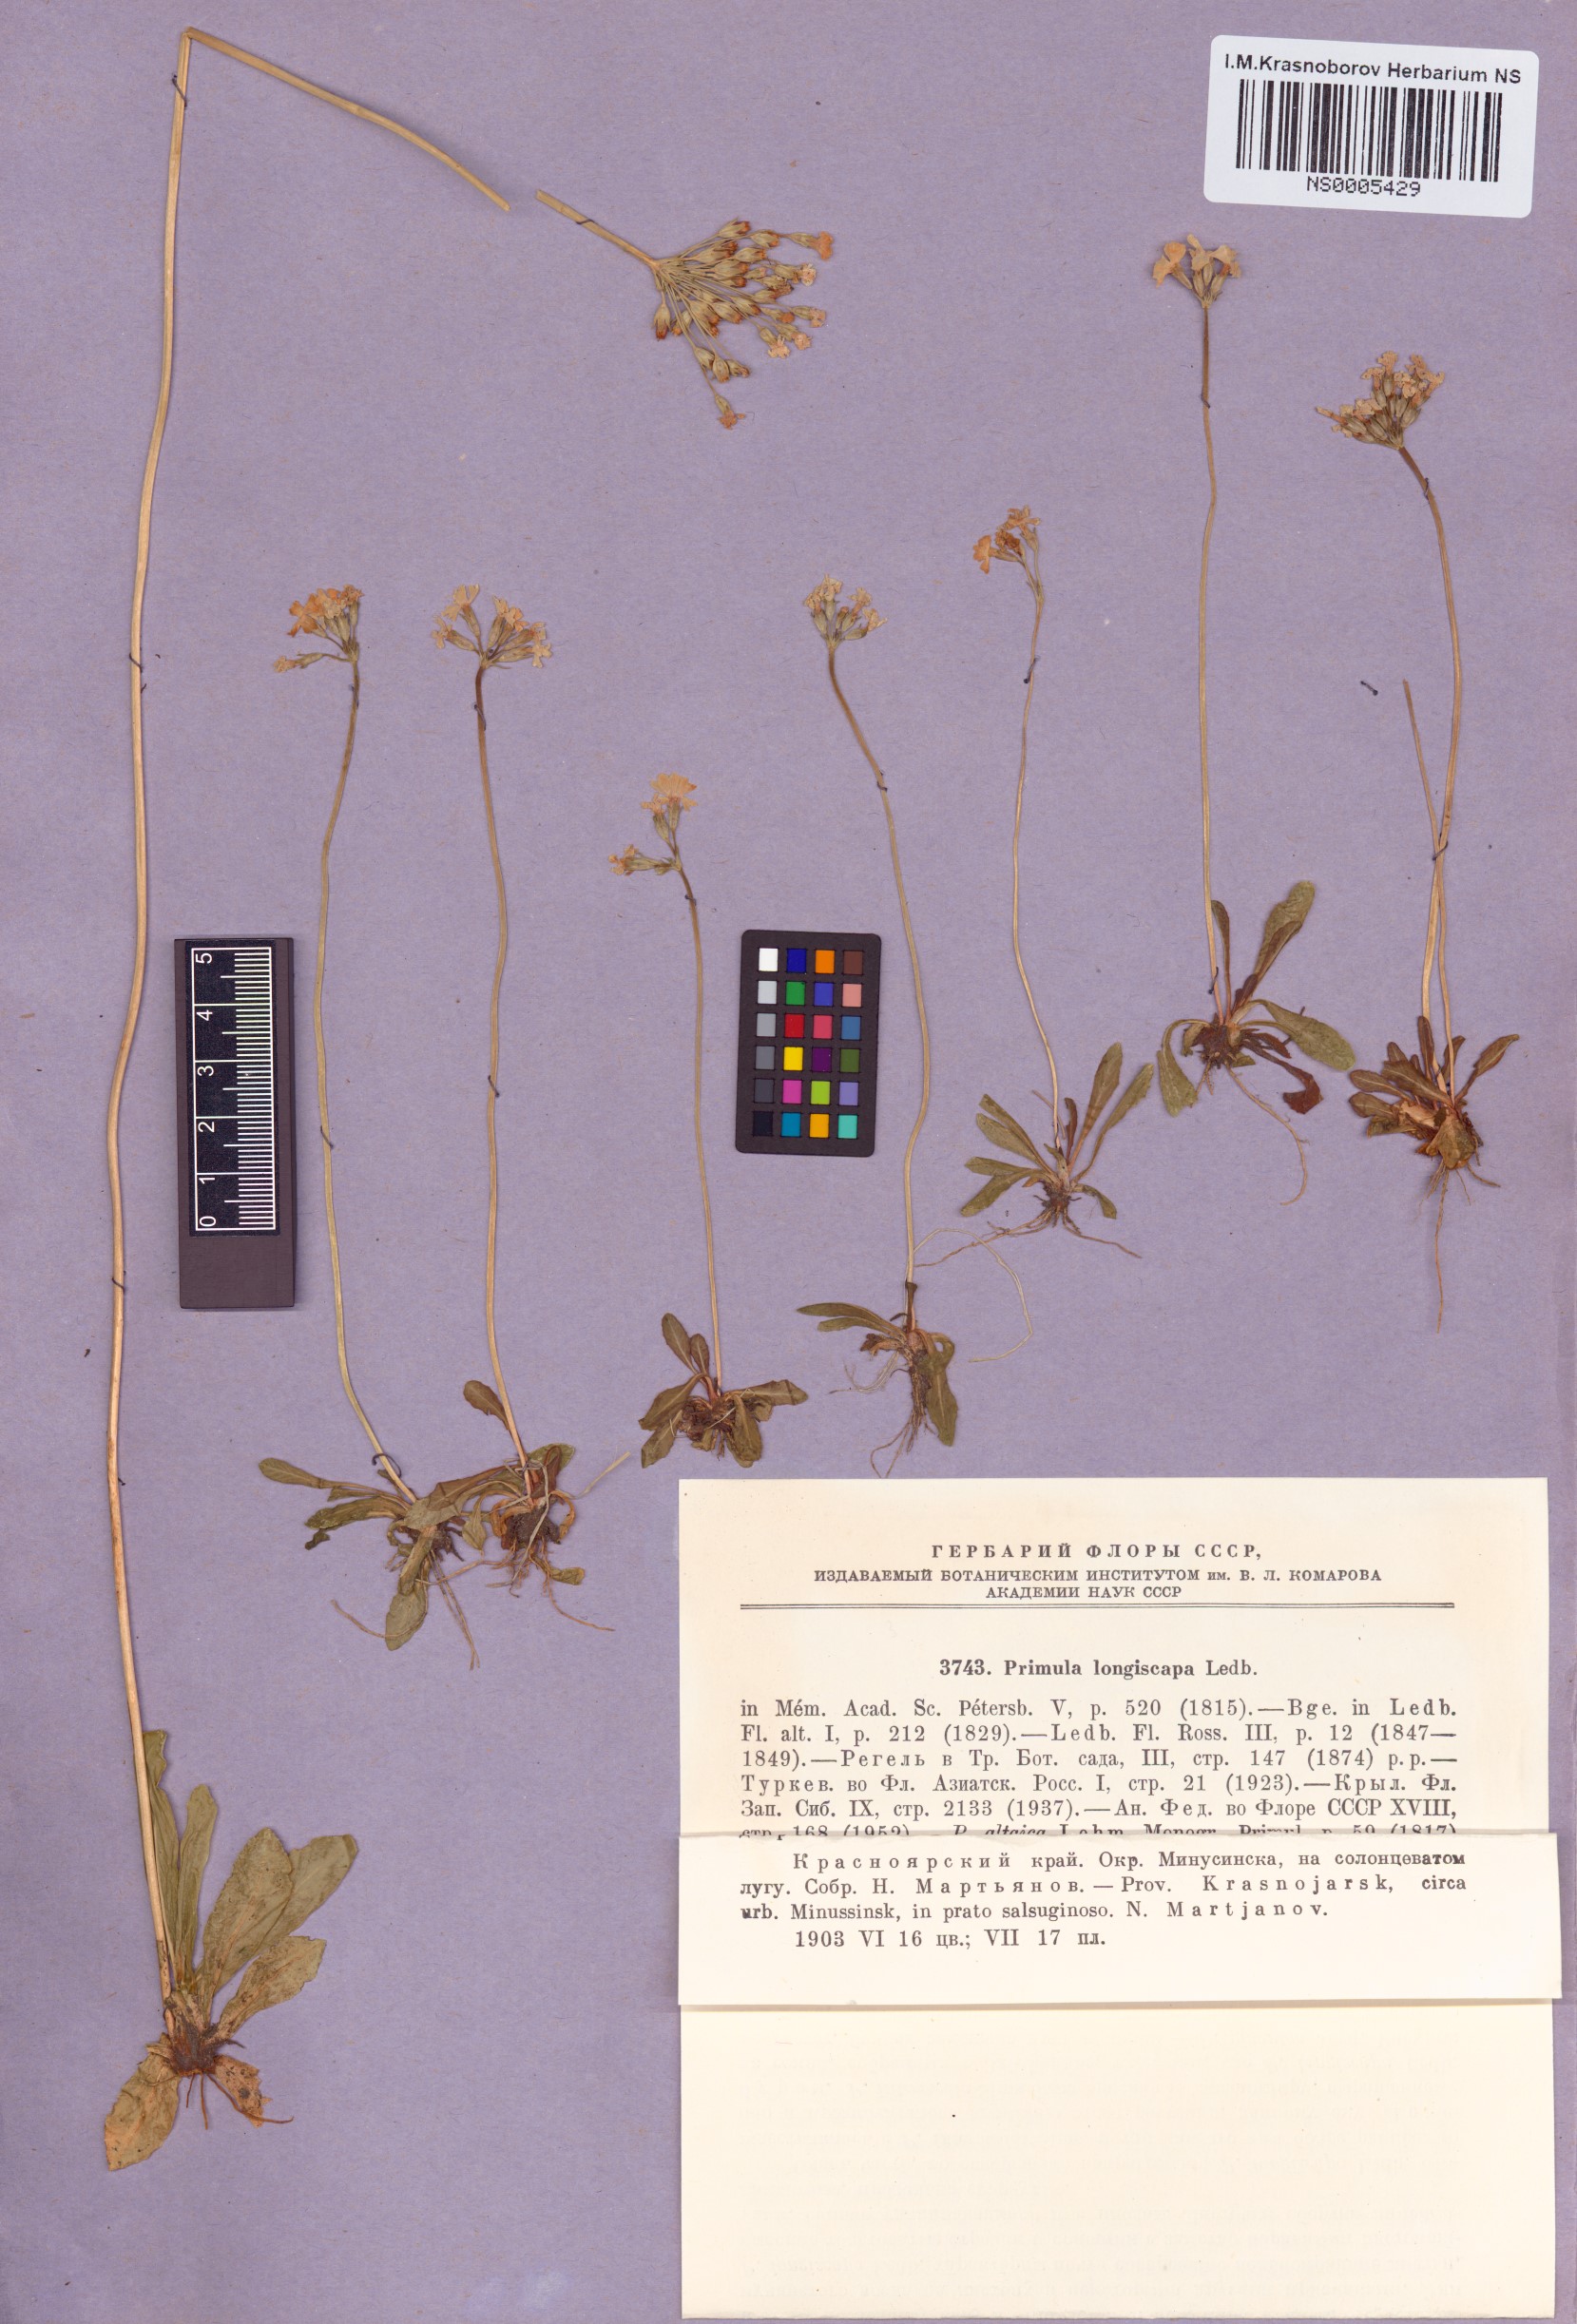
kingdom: Plantae
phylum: Tracheophyta
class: Magnoliopsida
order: Ericales
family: Primulaceae
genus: Primula
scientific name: Primula longiscapa
